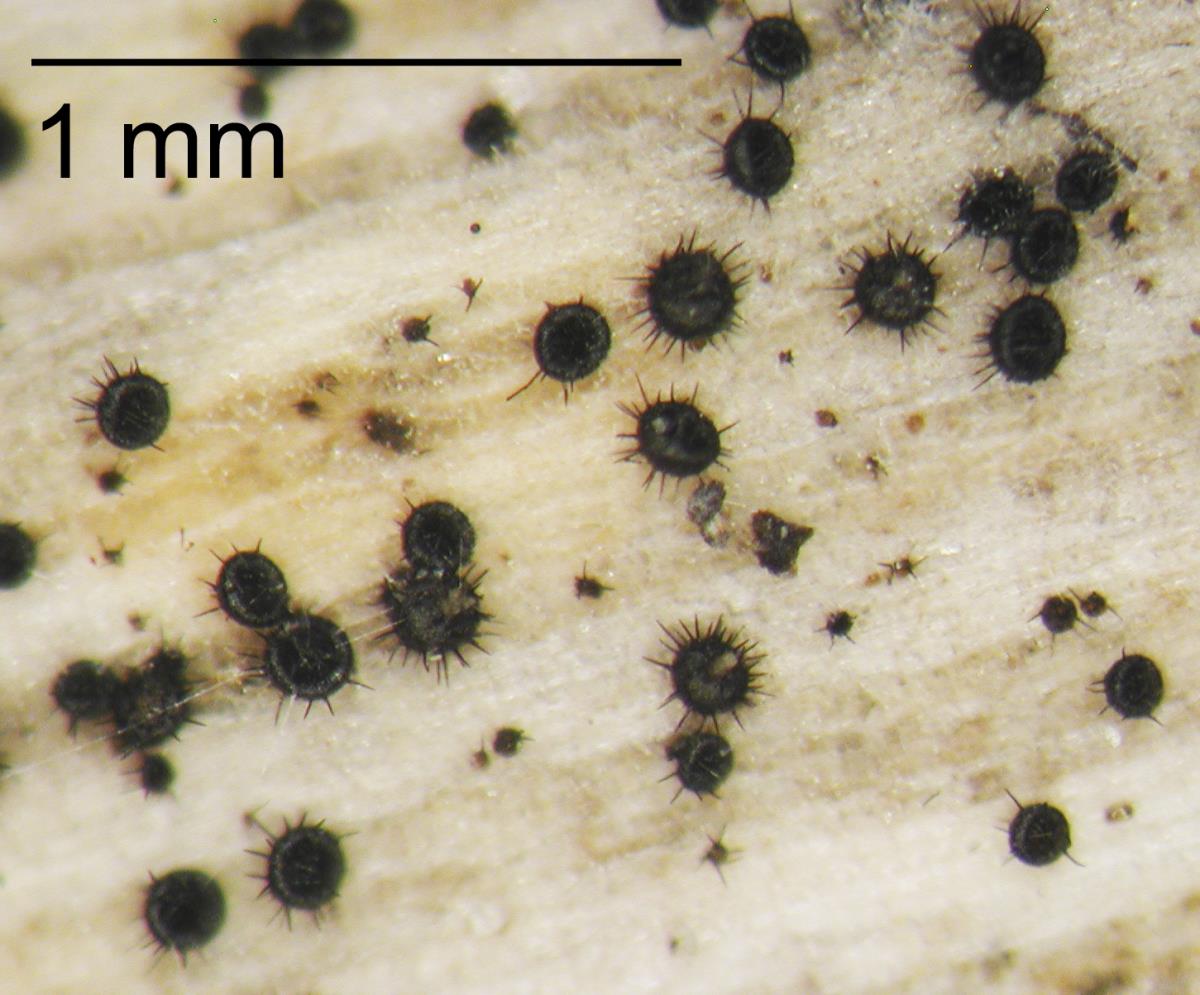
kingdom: Fungi
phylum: Ascomycota
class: Eurotiomycetes
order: Chaetothyriales
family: Herpotrichiellaceae
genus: Capronia
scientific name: Capronia
